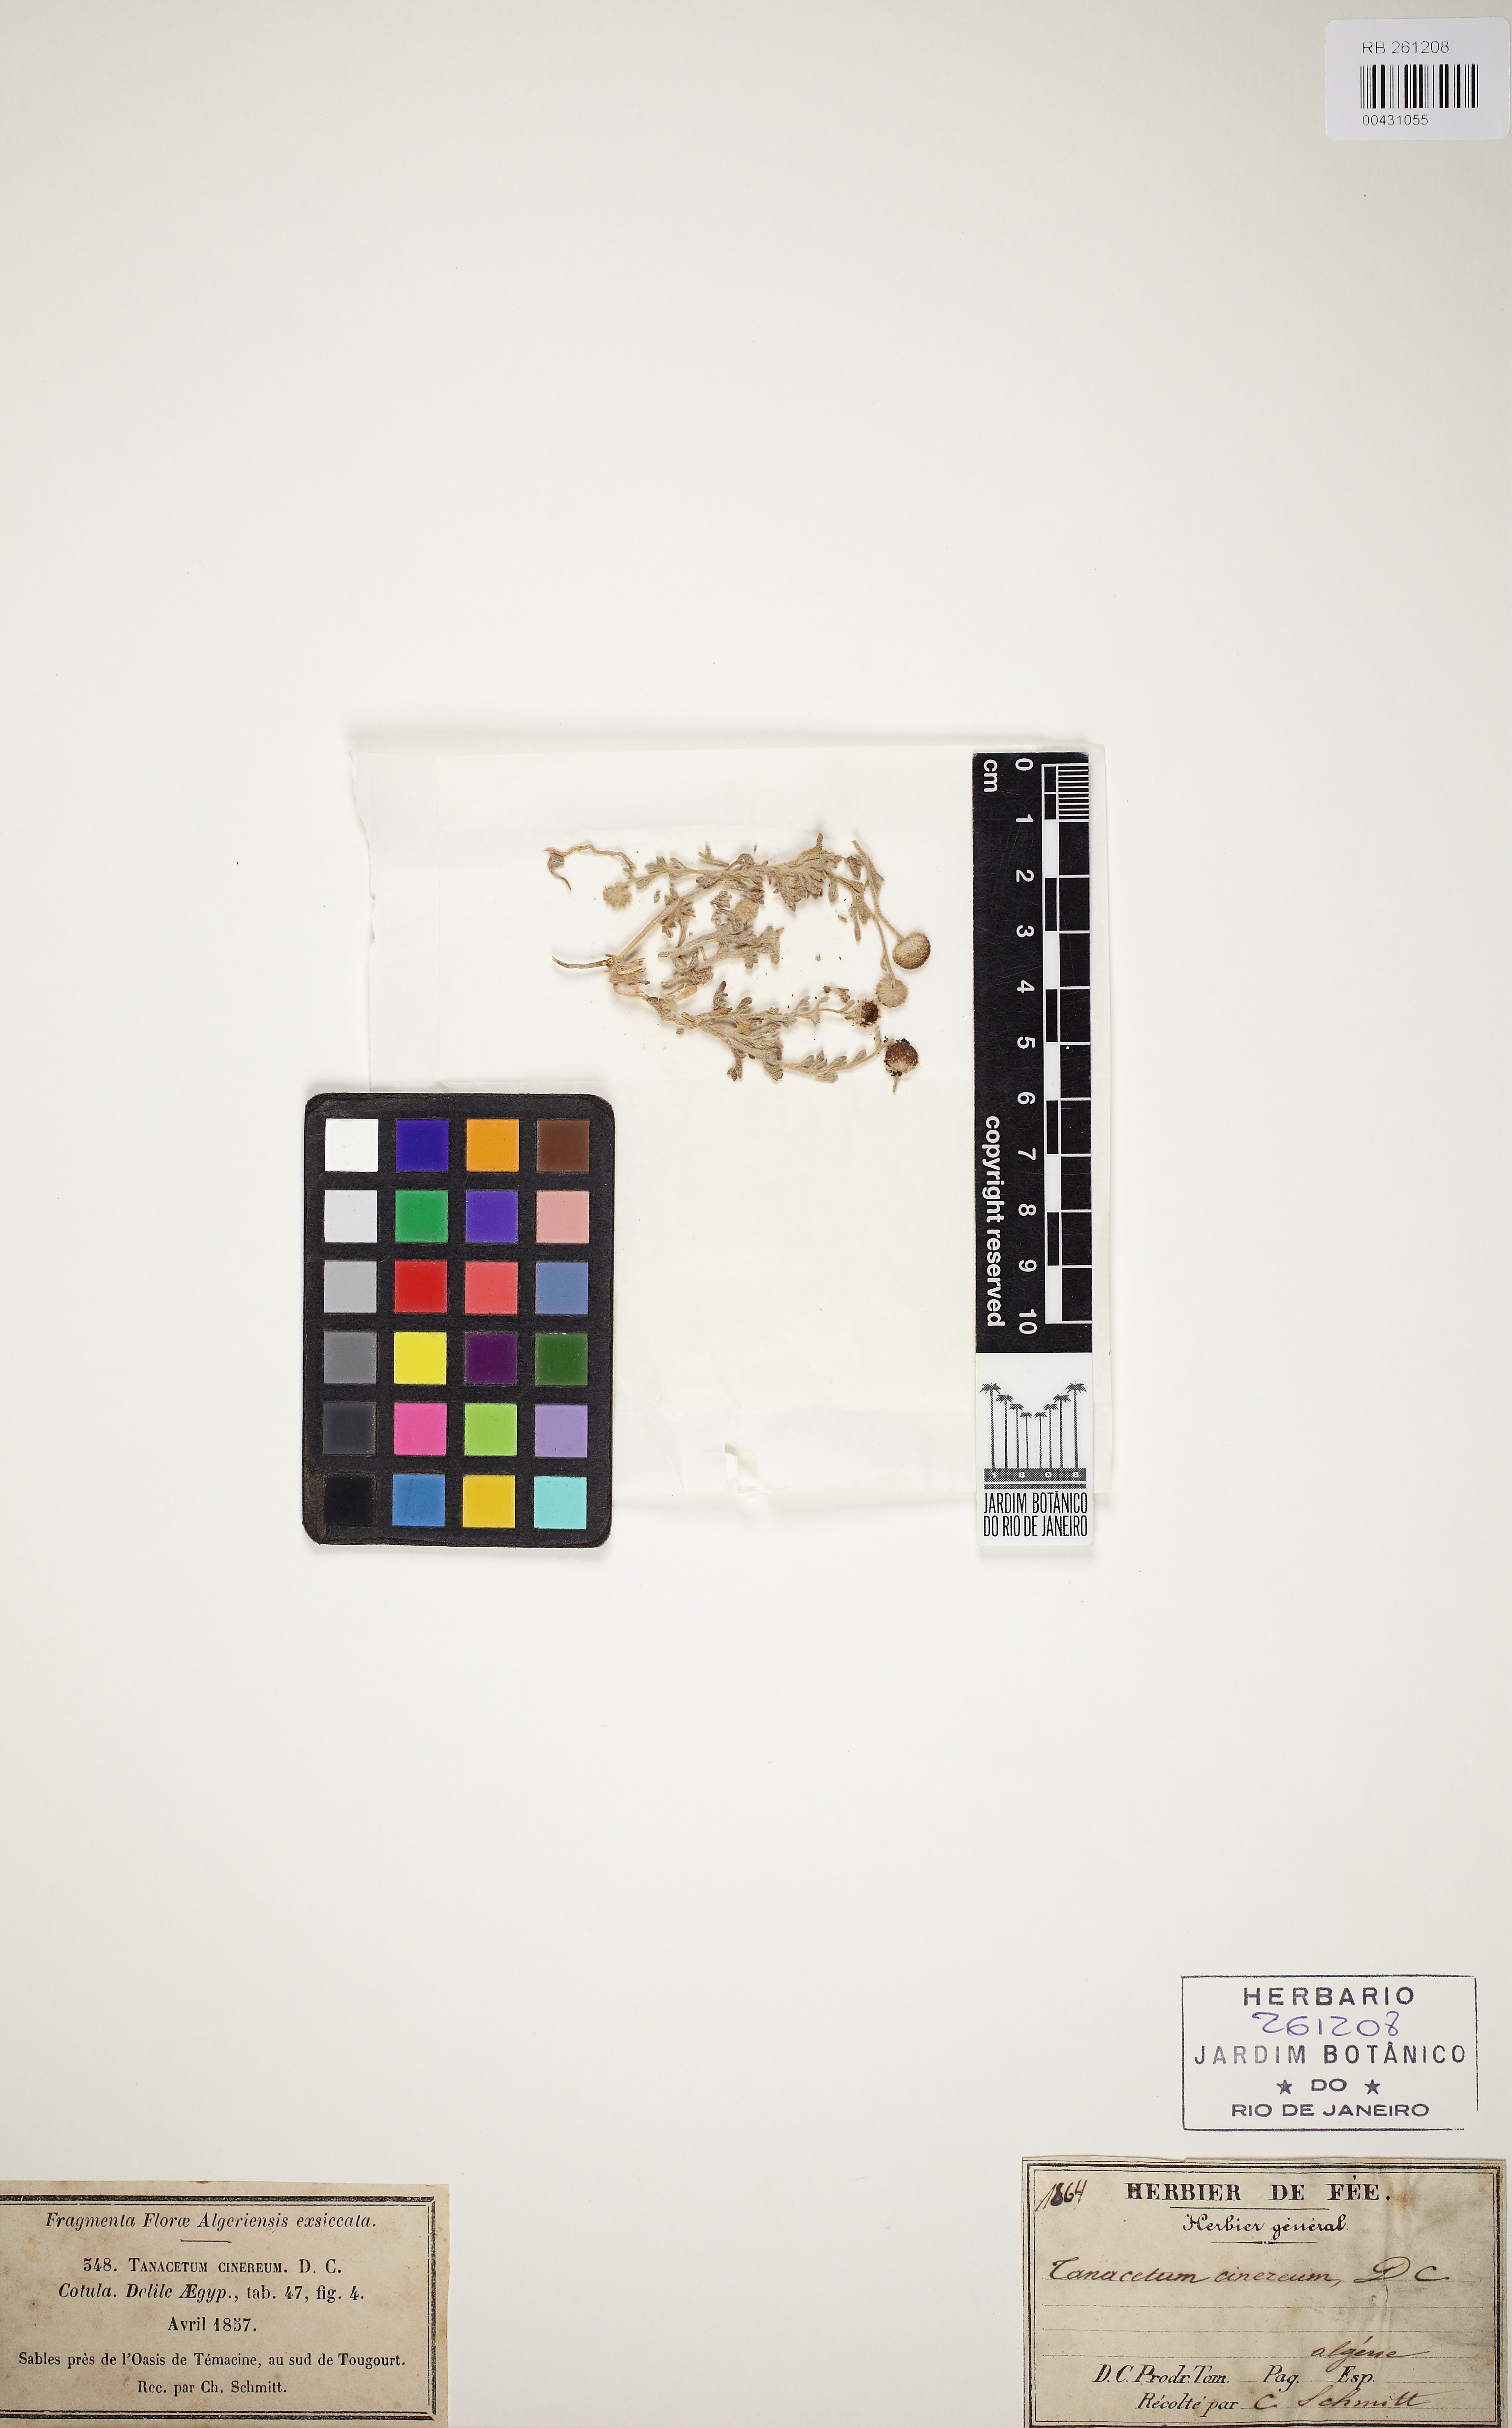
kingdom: Plantae
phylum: Tracheophyta
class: Magnoliopsida
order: Asterales
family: Asteraceae
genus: Brocchia
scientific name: Brocchia cinerea
